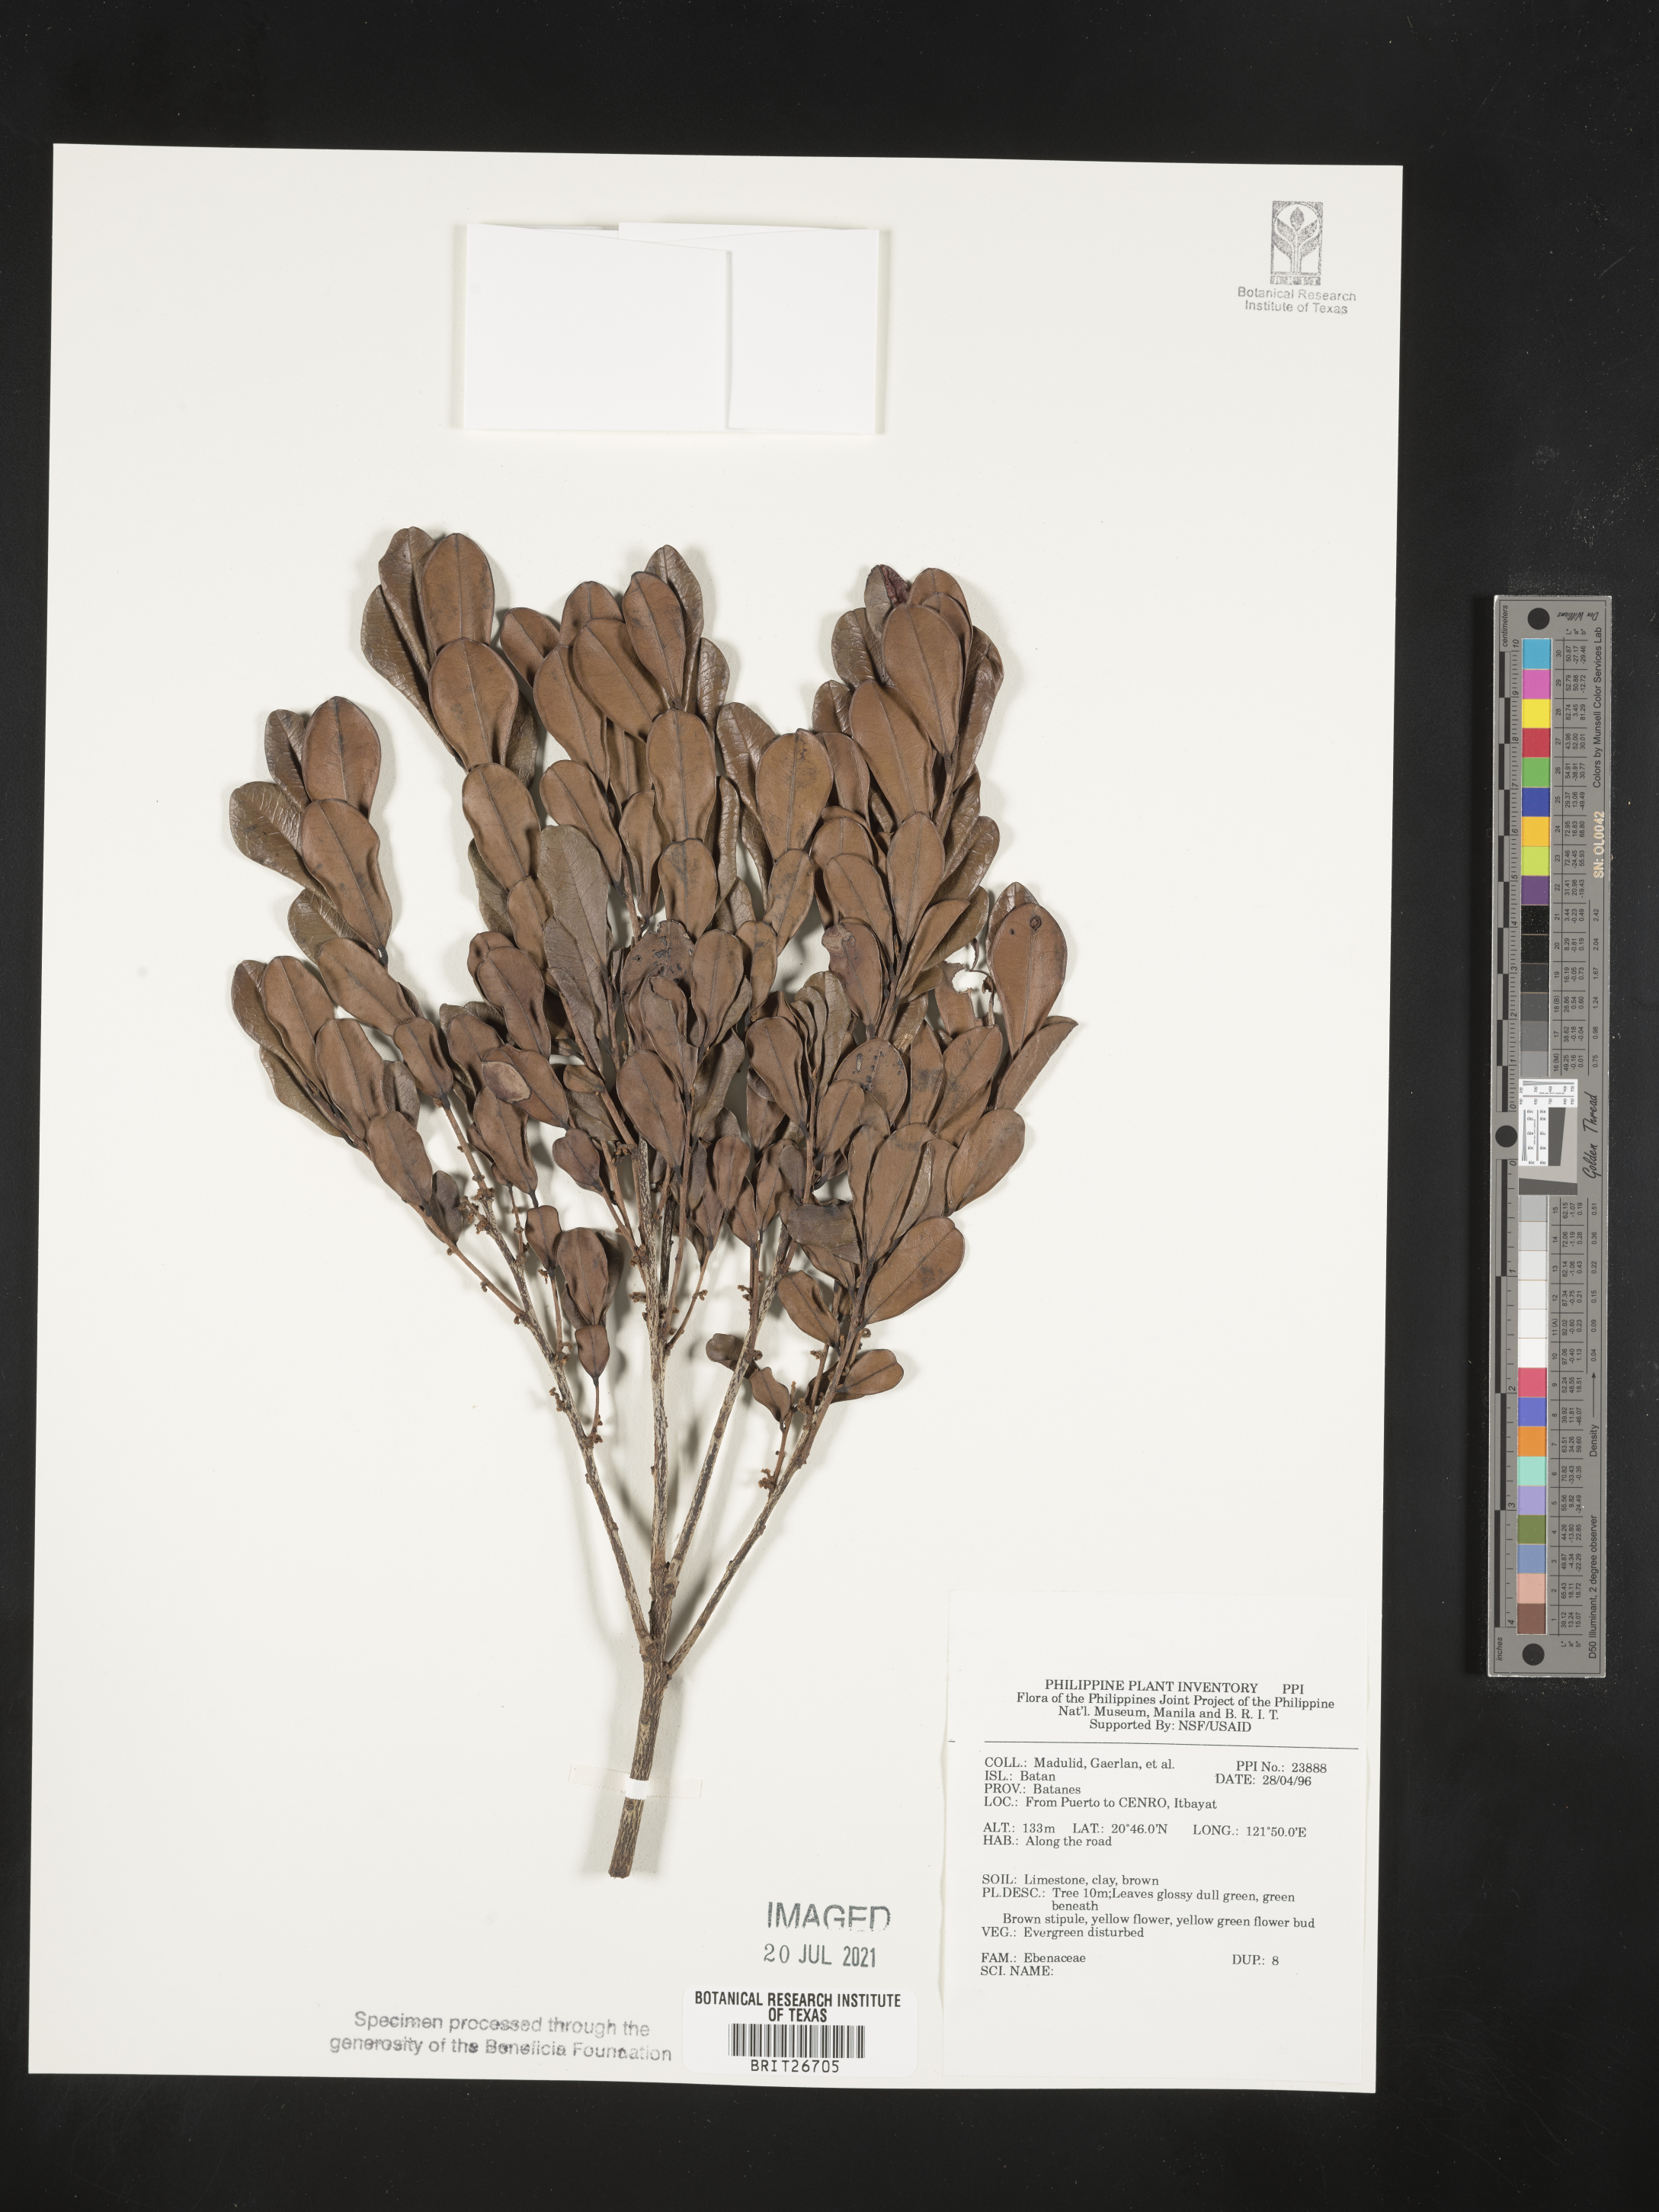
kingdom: Plantae
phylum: Tracheophyta
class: Magnoliopsida
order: Ericales
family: Ebenaceae
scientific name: Ebenaceae
